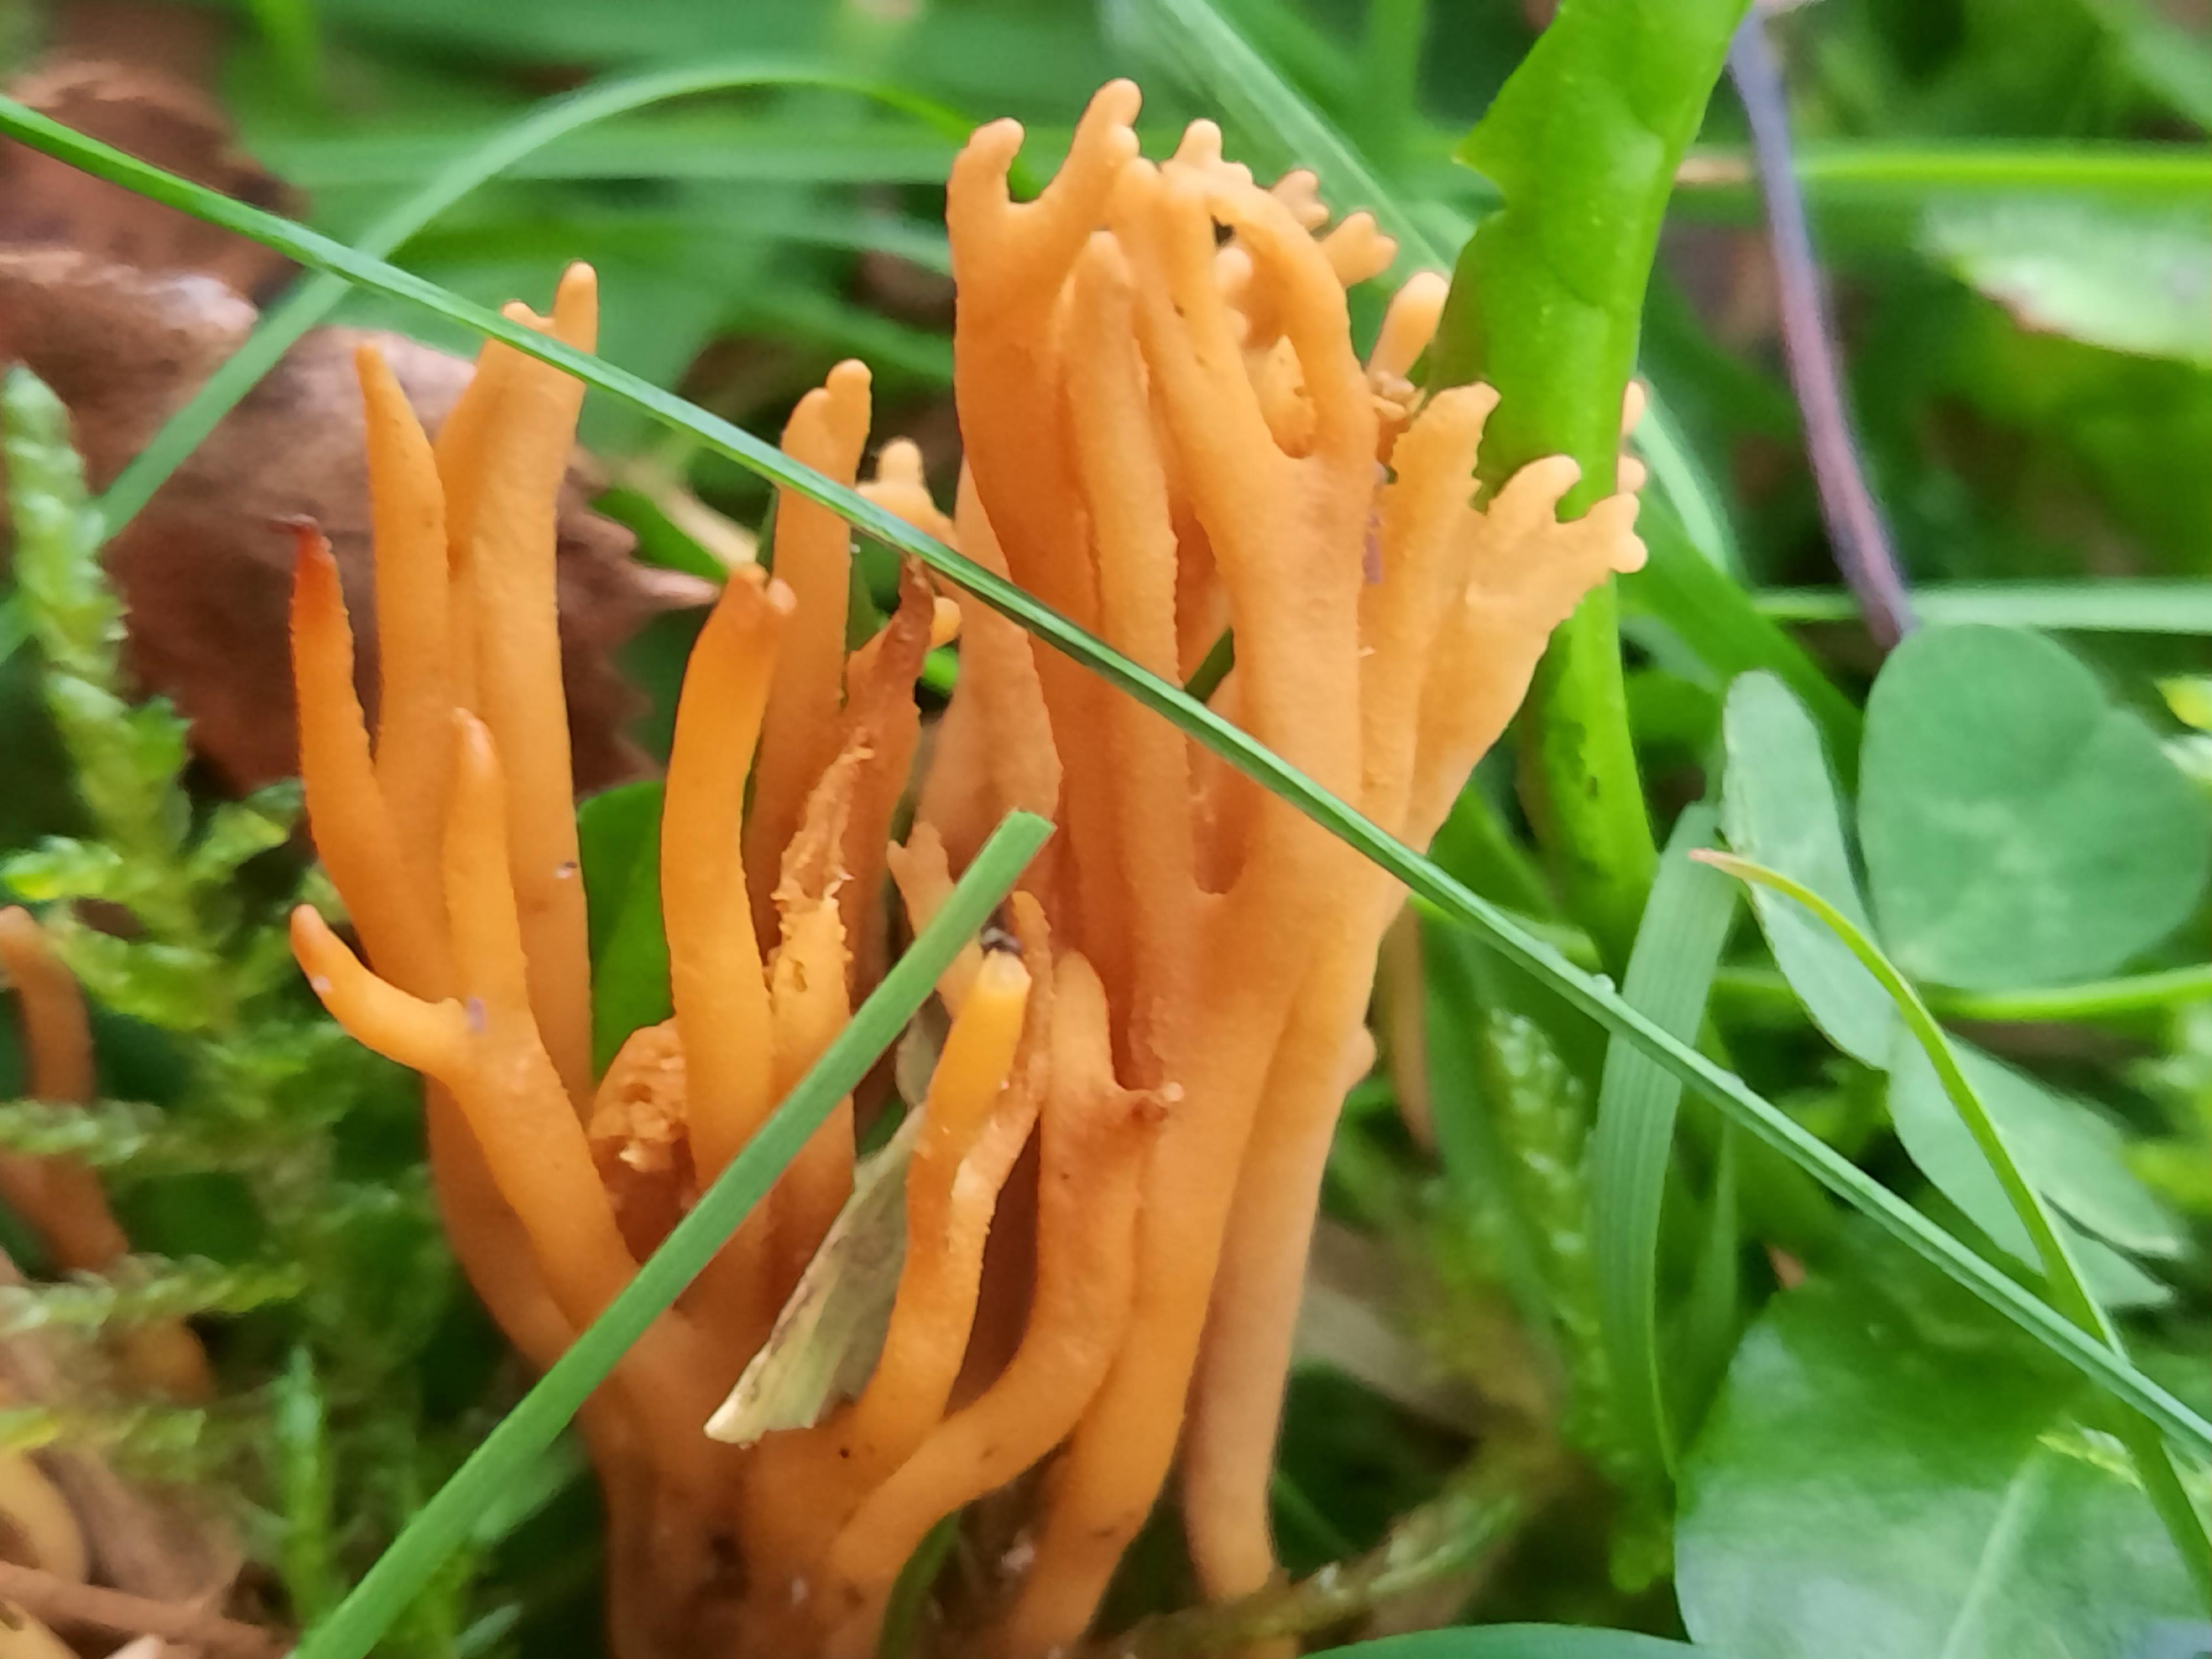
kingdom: Fungi
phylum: Basidiomycota
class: Agaricomycetes
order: Agaricales
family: Clavariaceae
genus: Clavulinopsis
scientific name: Clavulinopsis corniculata
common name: eng-køllesvamp
